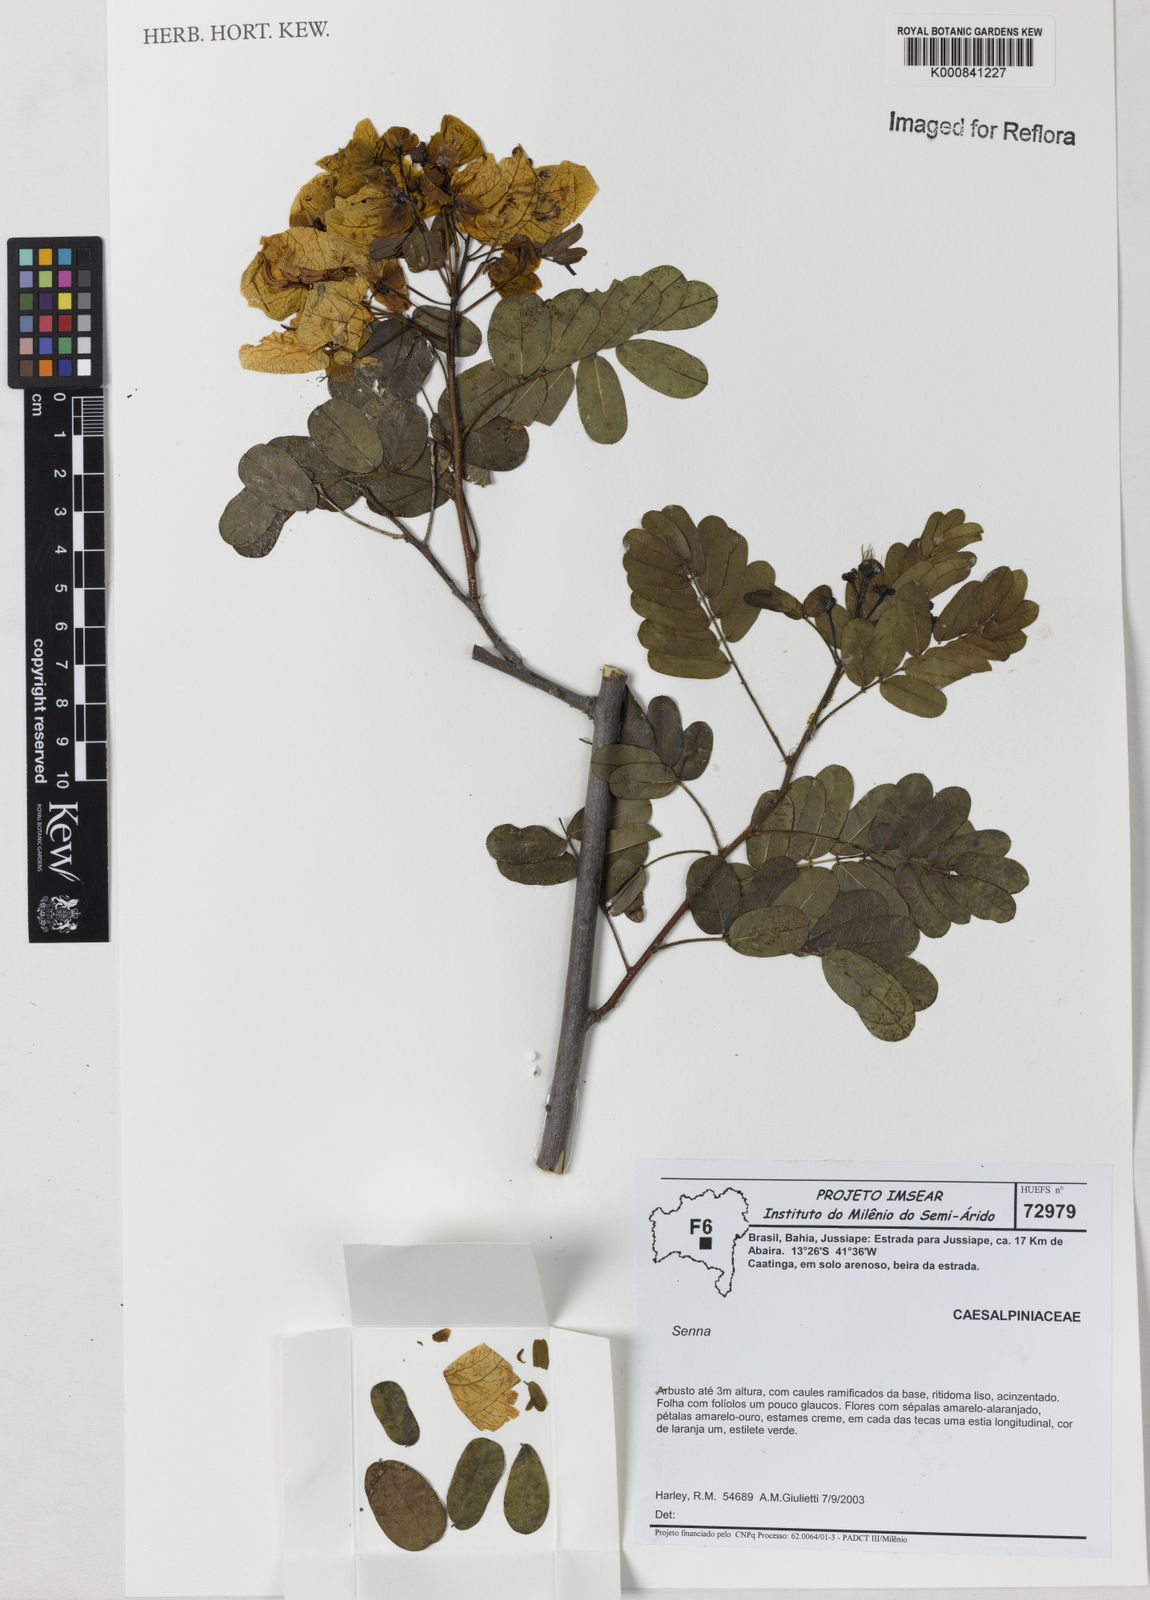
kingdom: Plantae
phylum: Tracheophyta
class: Magnoliopsida
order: Fabales
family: Fabaceae
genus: Senna
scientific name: Senna
